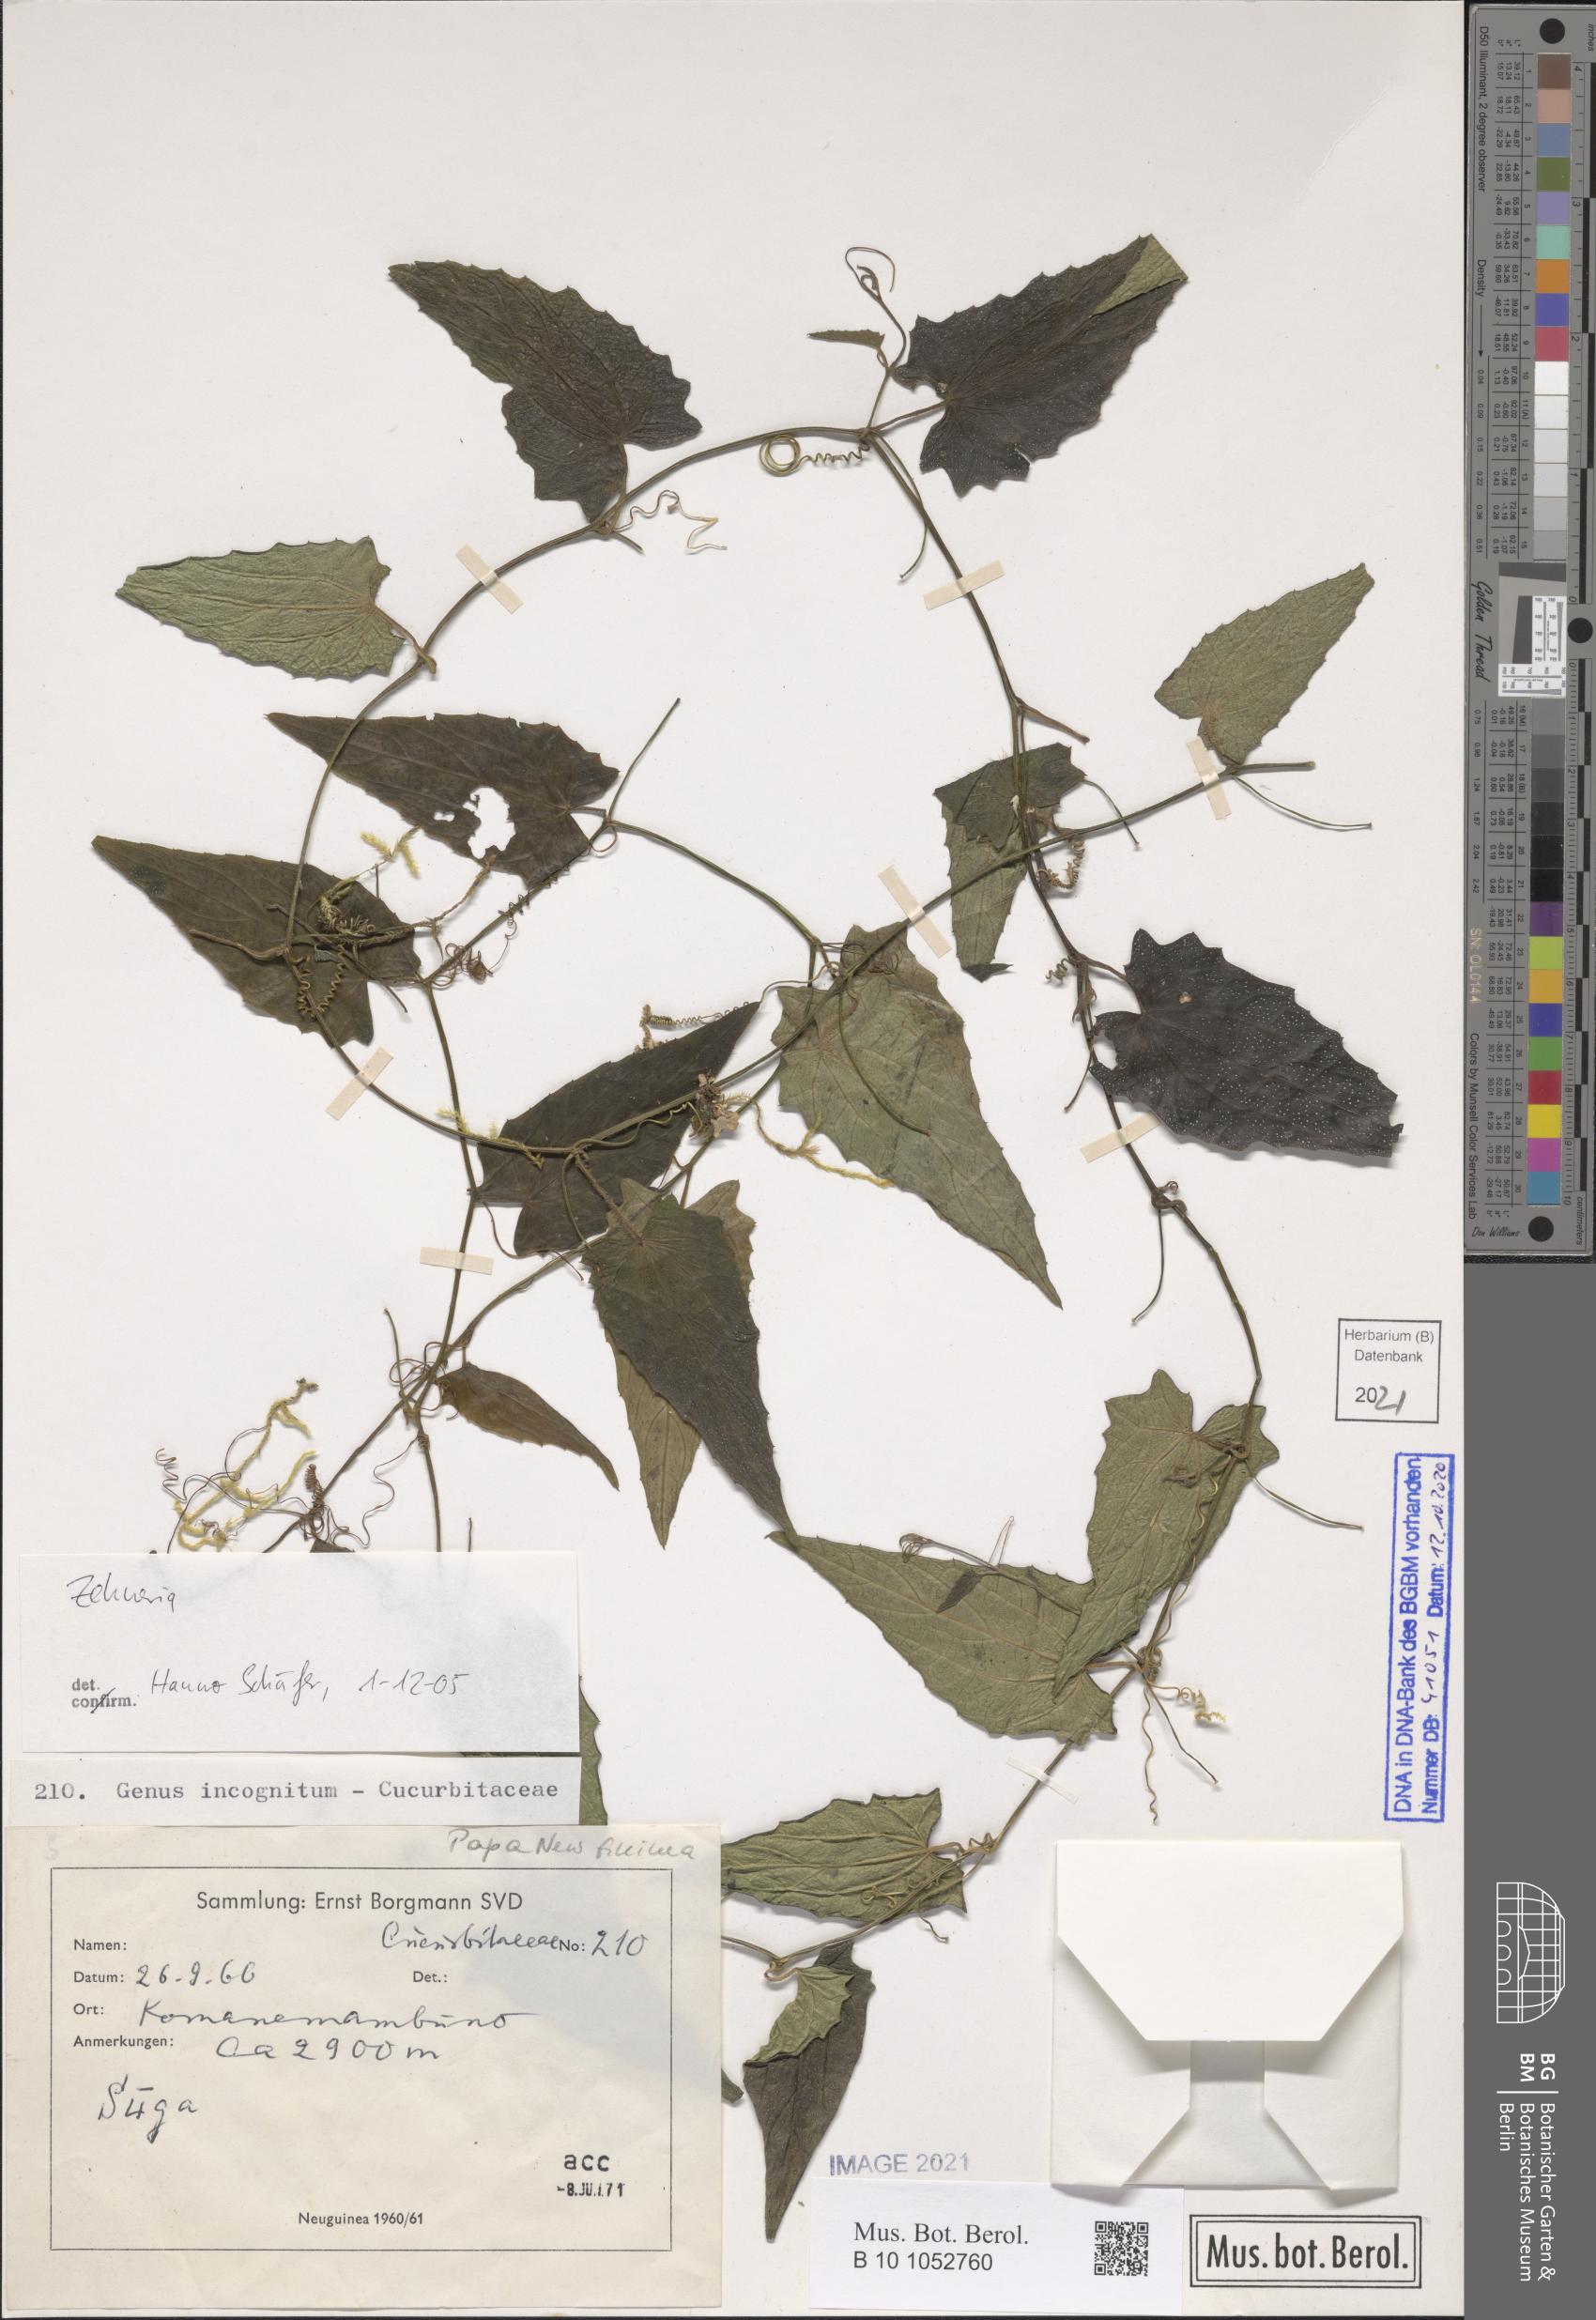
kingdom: Plantae
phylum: Tracheophyta
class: Magnoliopsida
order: Cucurbitales
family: Cucurbitaceae
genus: Zehneria
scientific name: Zehneria
